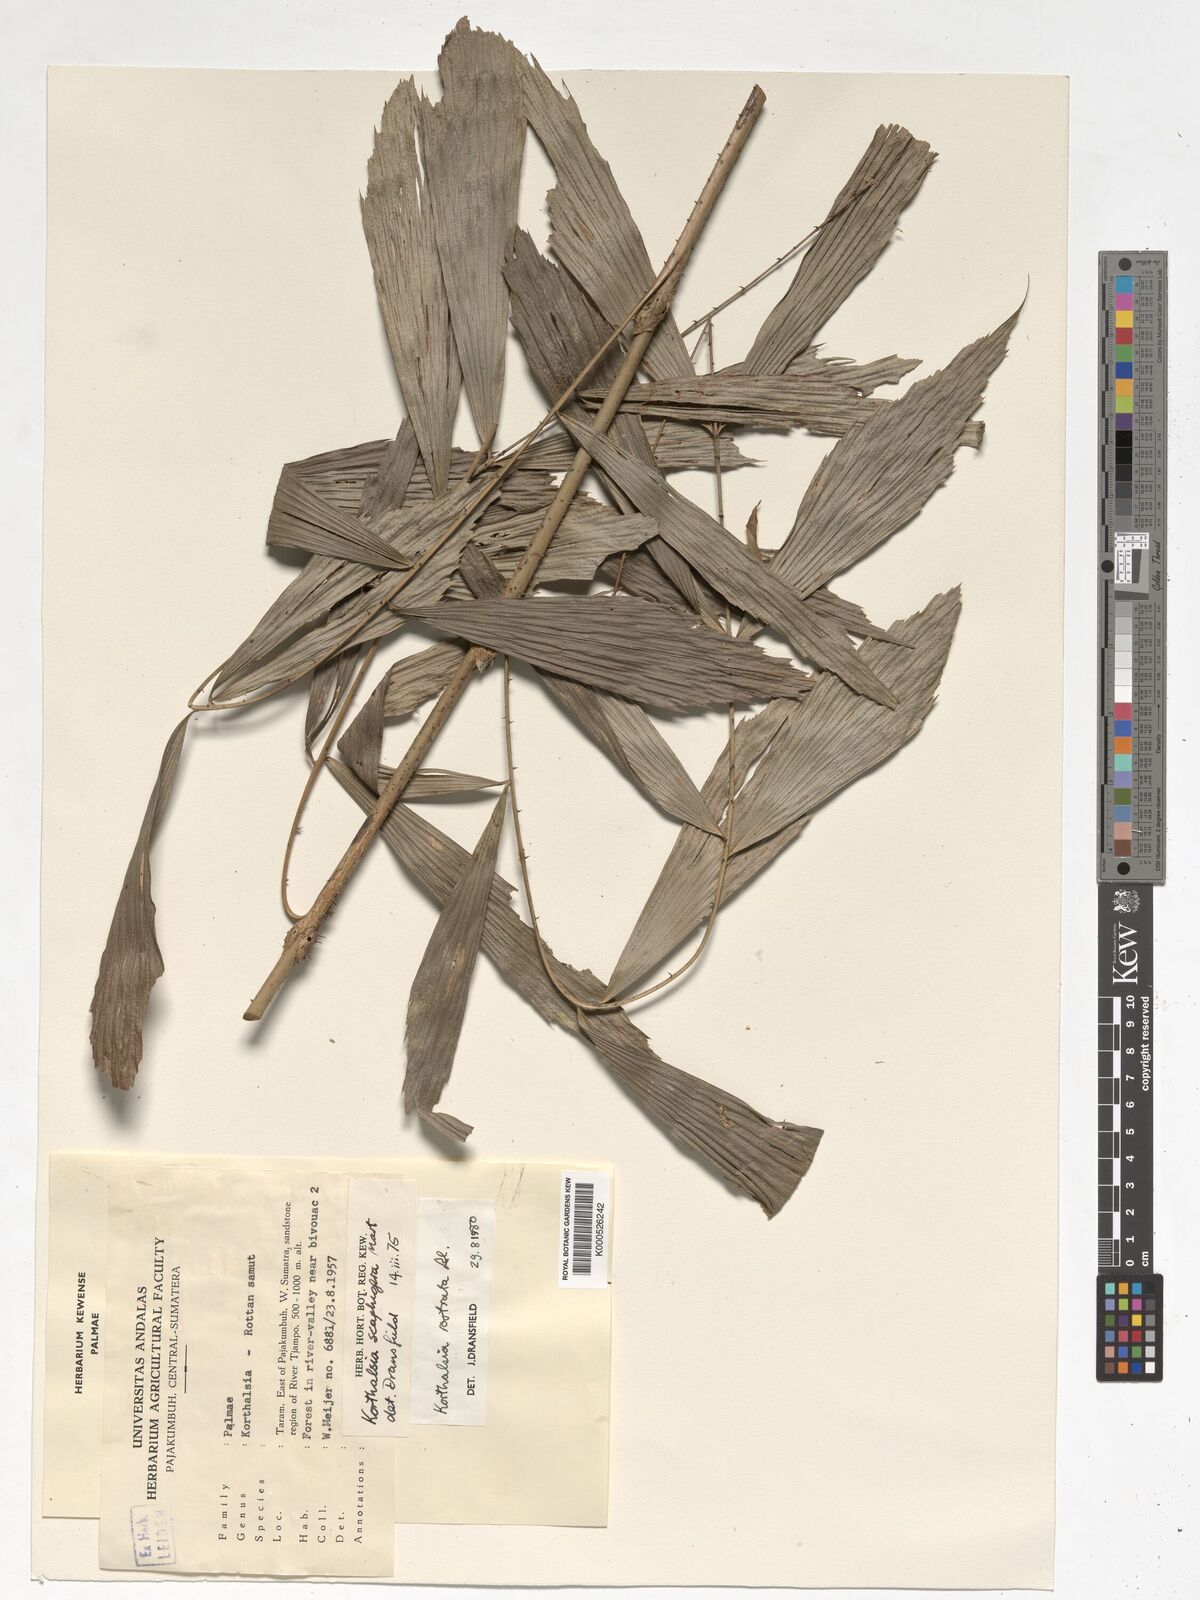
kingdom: Plantae
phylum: Tracheophyta
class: Liliopsida
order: Arecales
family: Arecaceae
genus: Korthalsia
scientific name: Korthalsia rostrata
